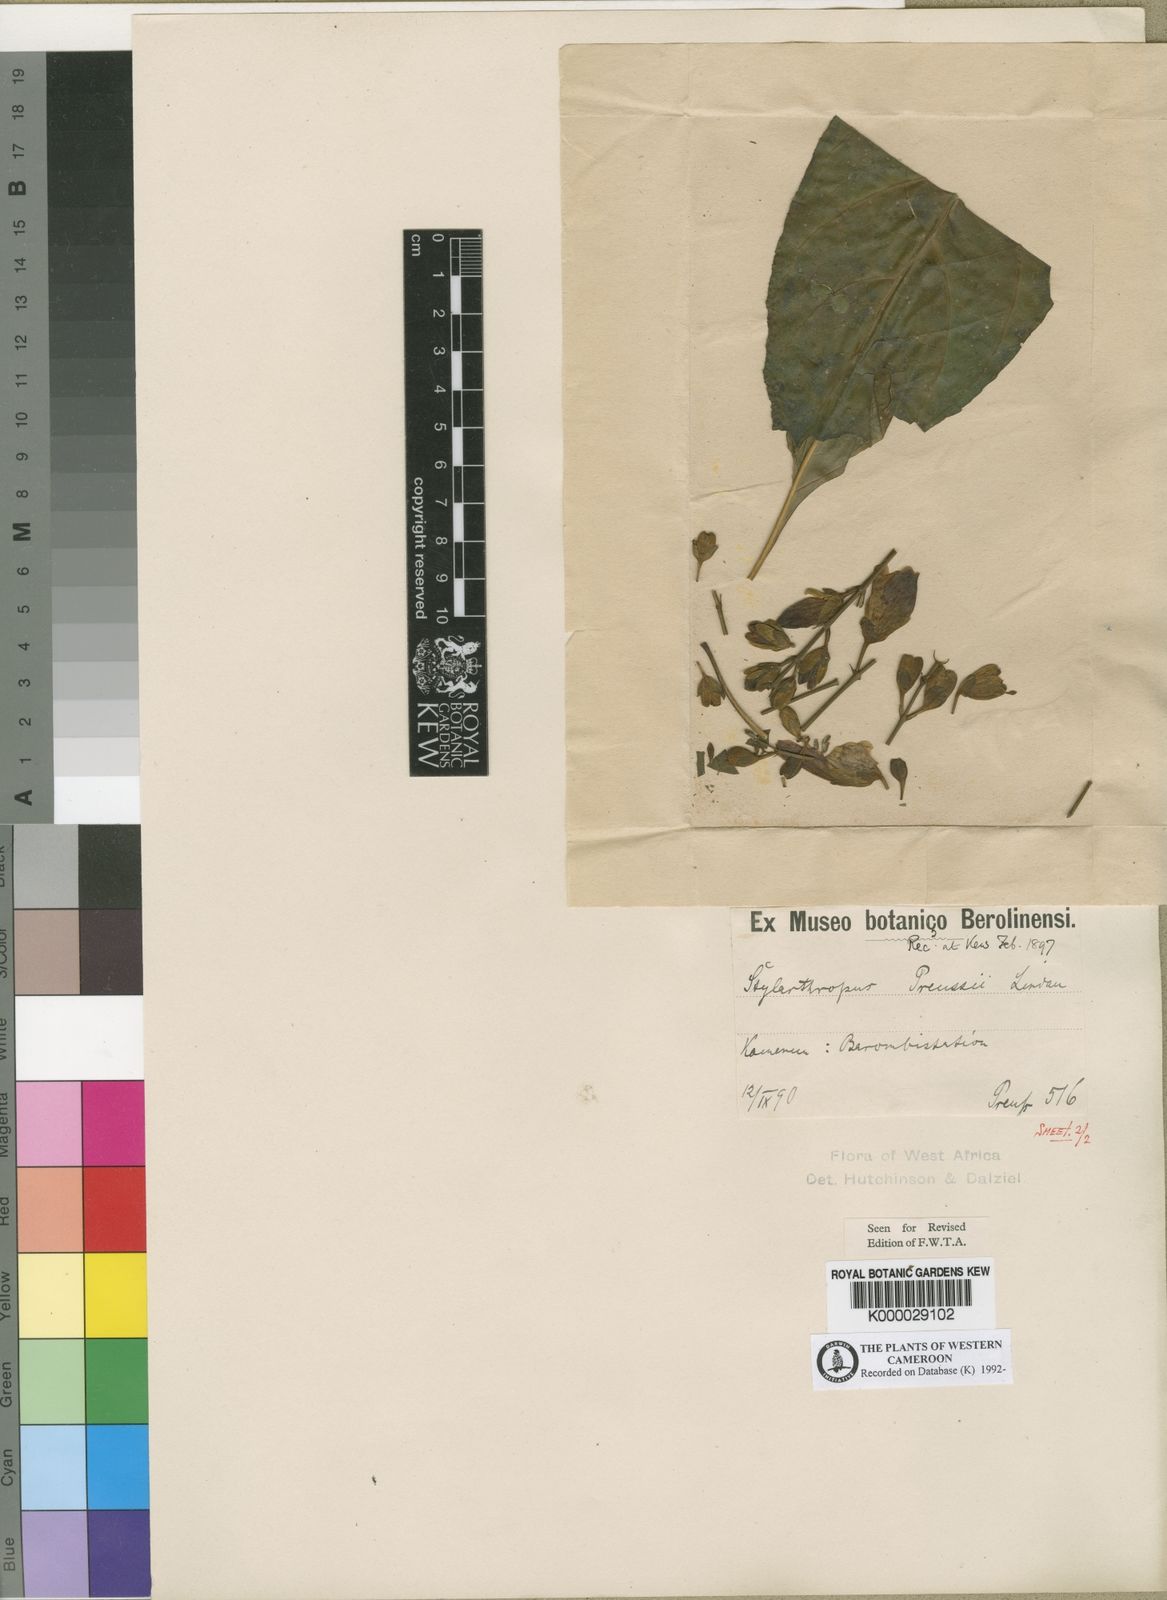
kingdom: Plantae
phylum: Tracheophyta
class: Magnoliopsida
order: Lamiales
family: Acanthaceae
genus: Whitfieldia
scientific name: Whitfieldia preussii
